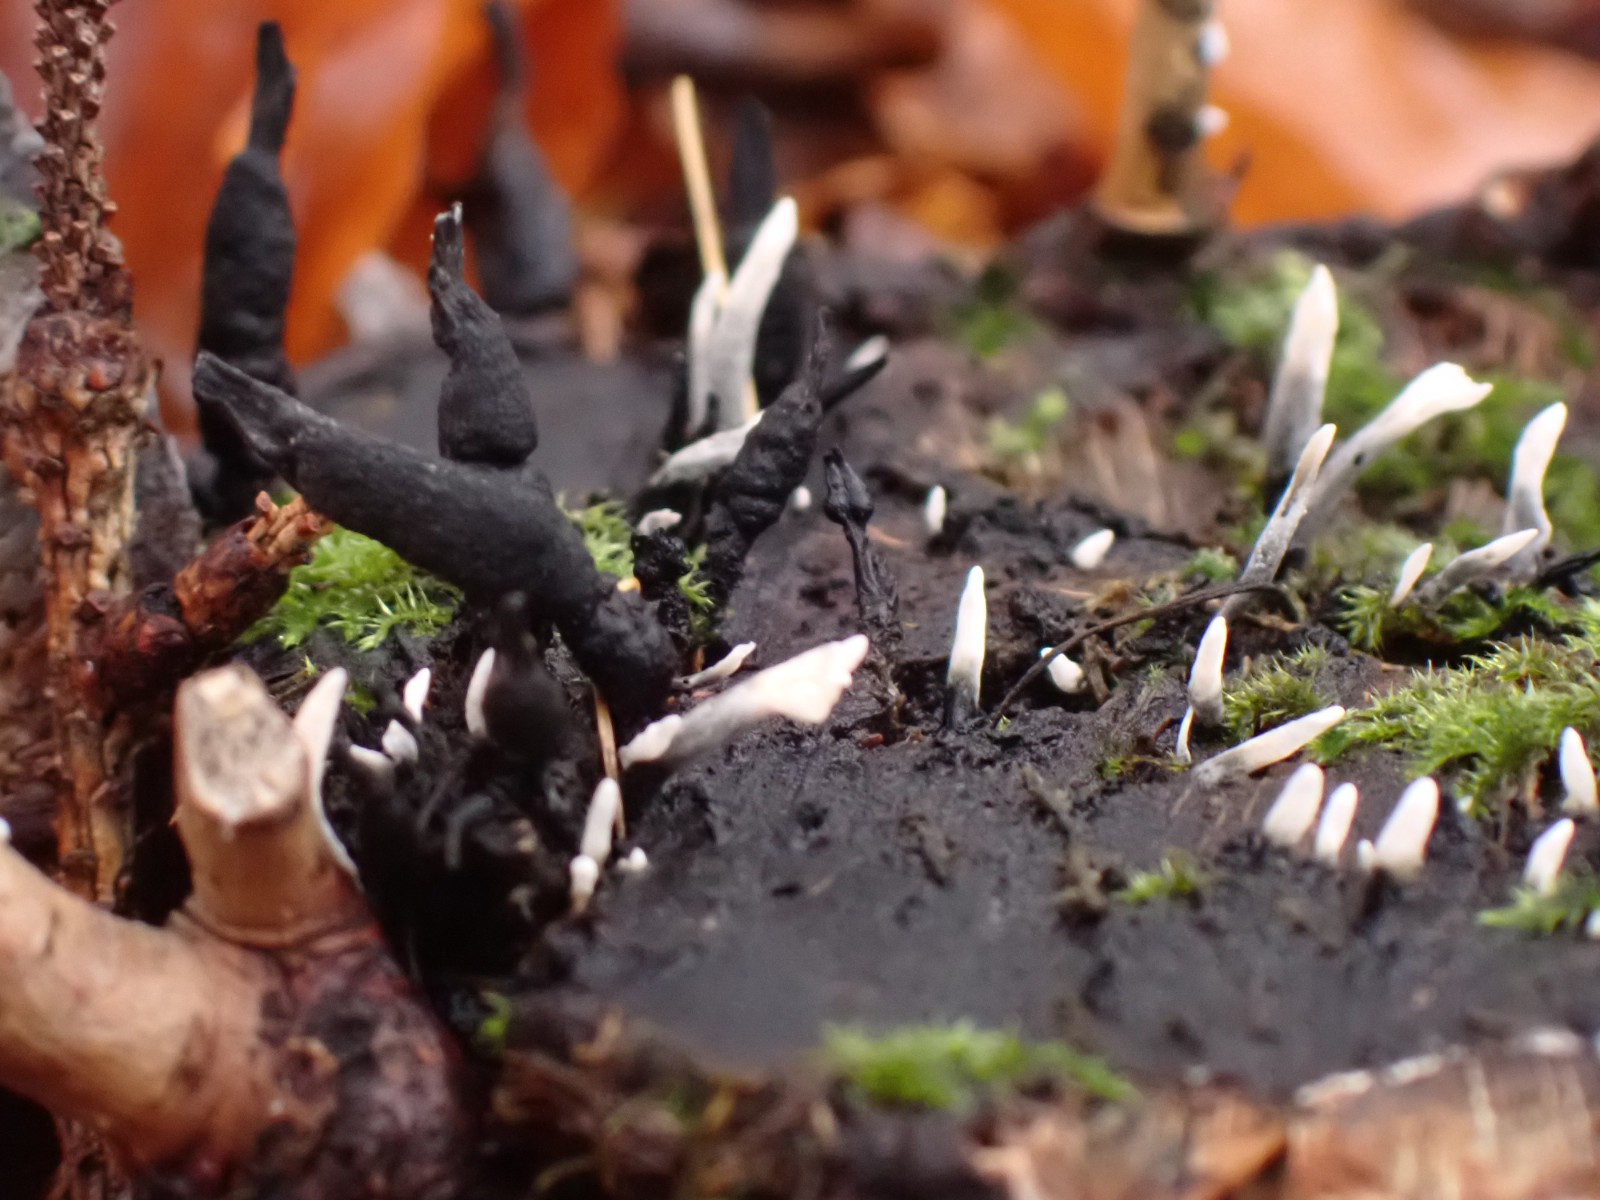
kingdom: Fungi
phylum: Ascomycota
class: Sordariomycetes
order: Xylariales
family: Xylariaceae
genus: Xylaria
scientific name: Xylaria hypoxylon
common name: grenet stødsvamp
